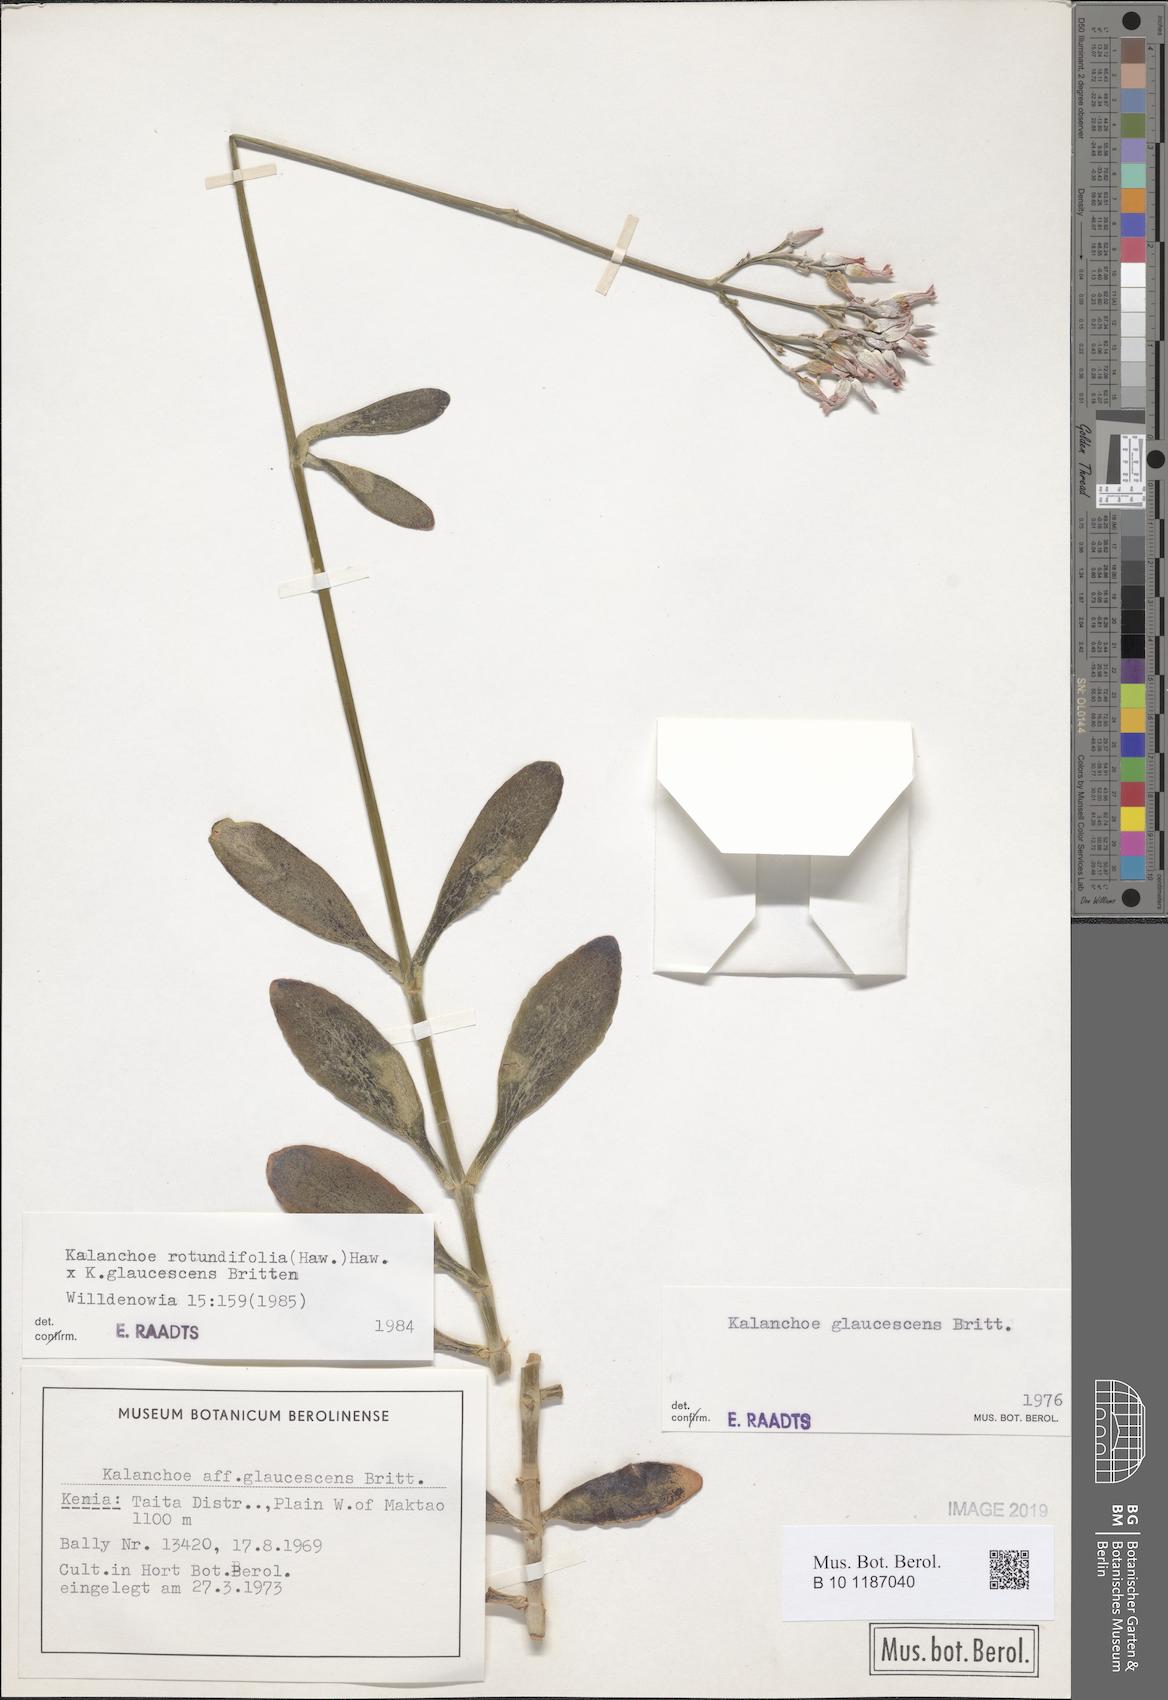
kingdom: Plantae
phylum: Tracheophyta
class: Magnoliopsida
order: Saxifragales
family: Crassulaceae
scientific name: Crassulaceae
